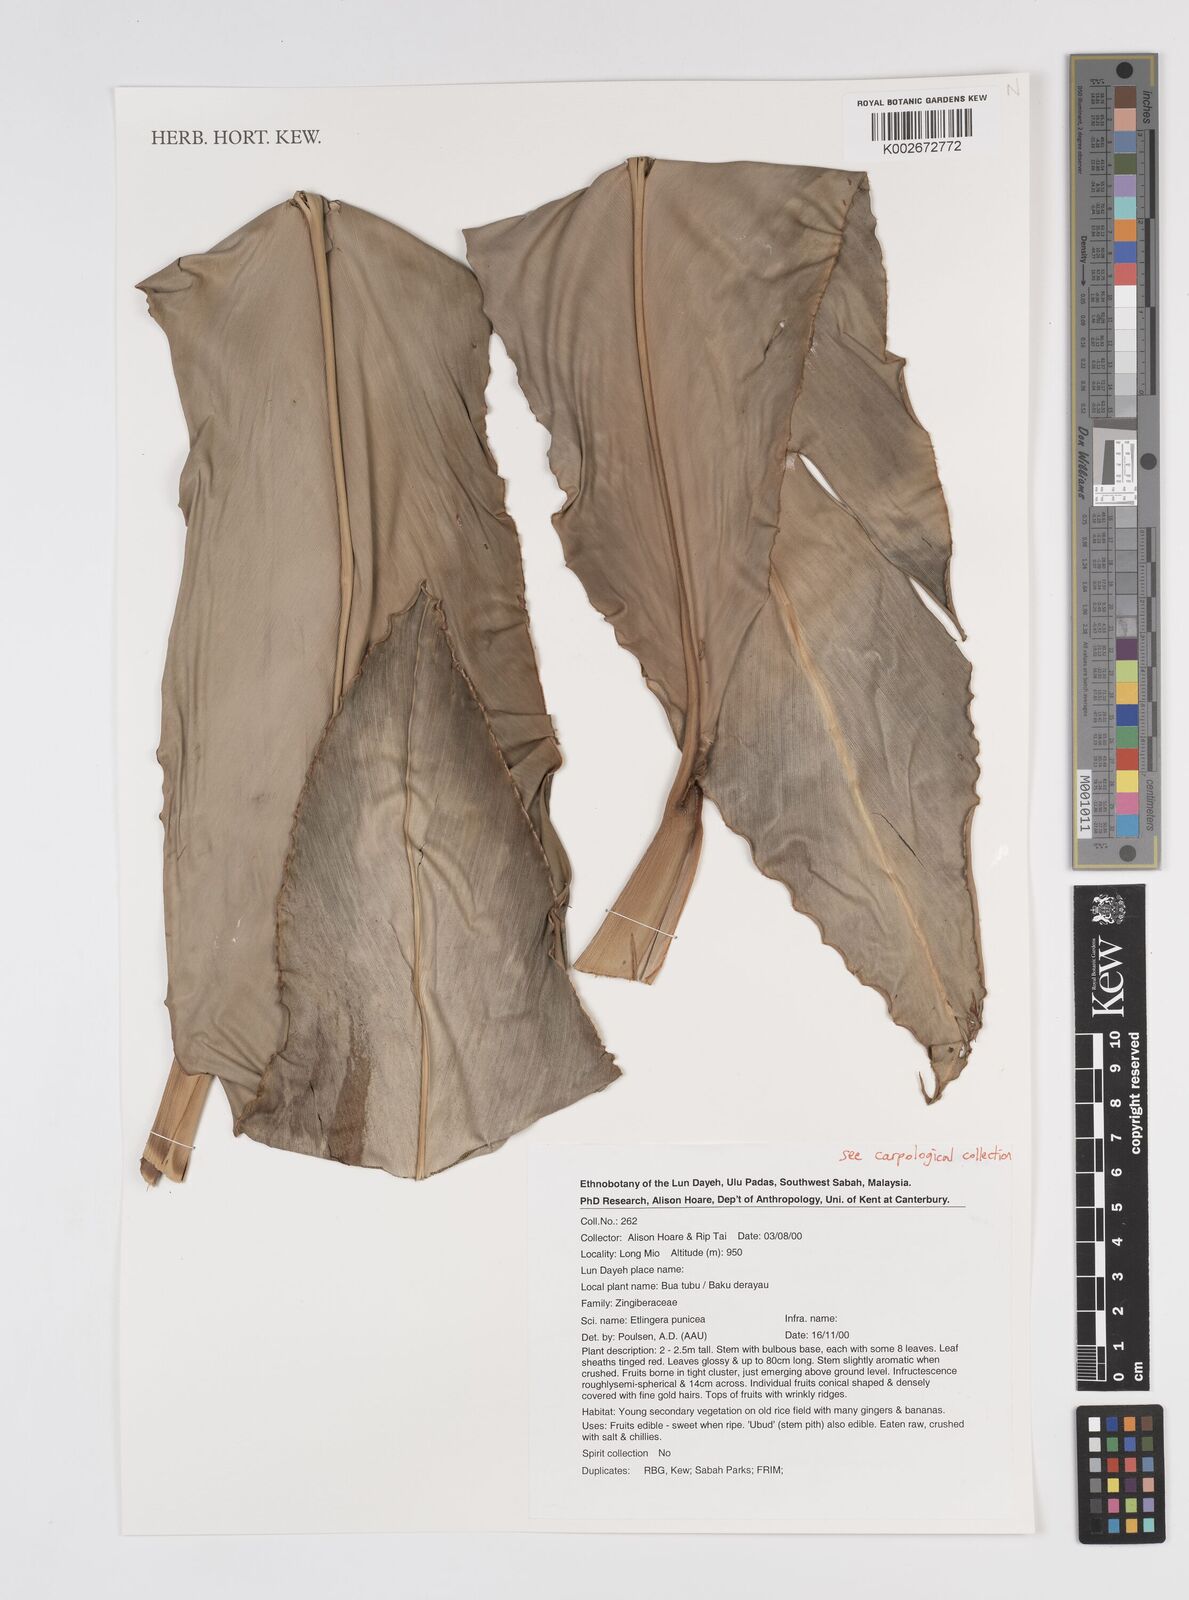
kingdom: Plantae
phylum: Tracheophyta
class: Liliopsida
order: Zingiberales
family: Zingiberaceae
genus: Etlingera
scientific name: Etlingera punicea
